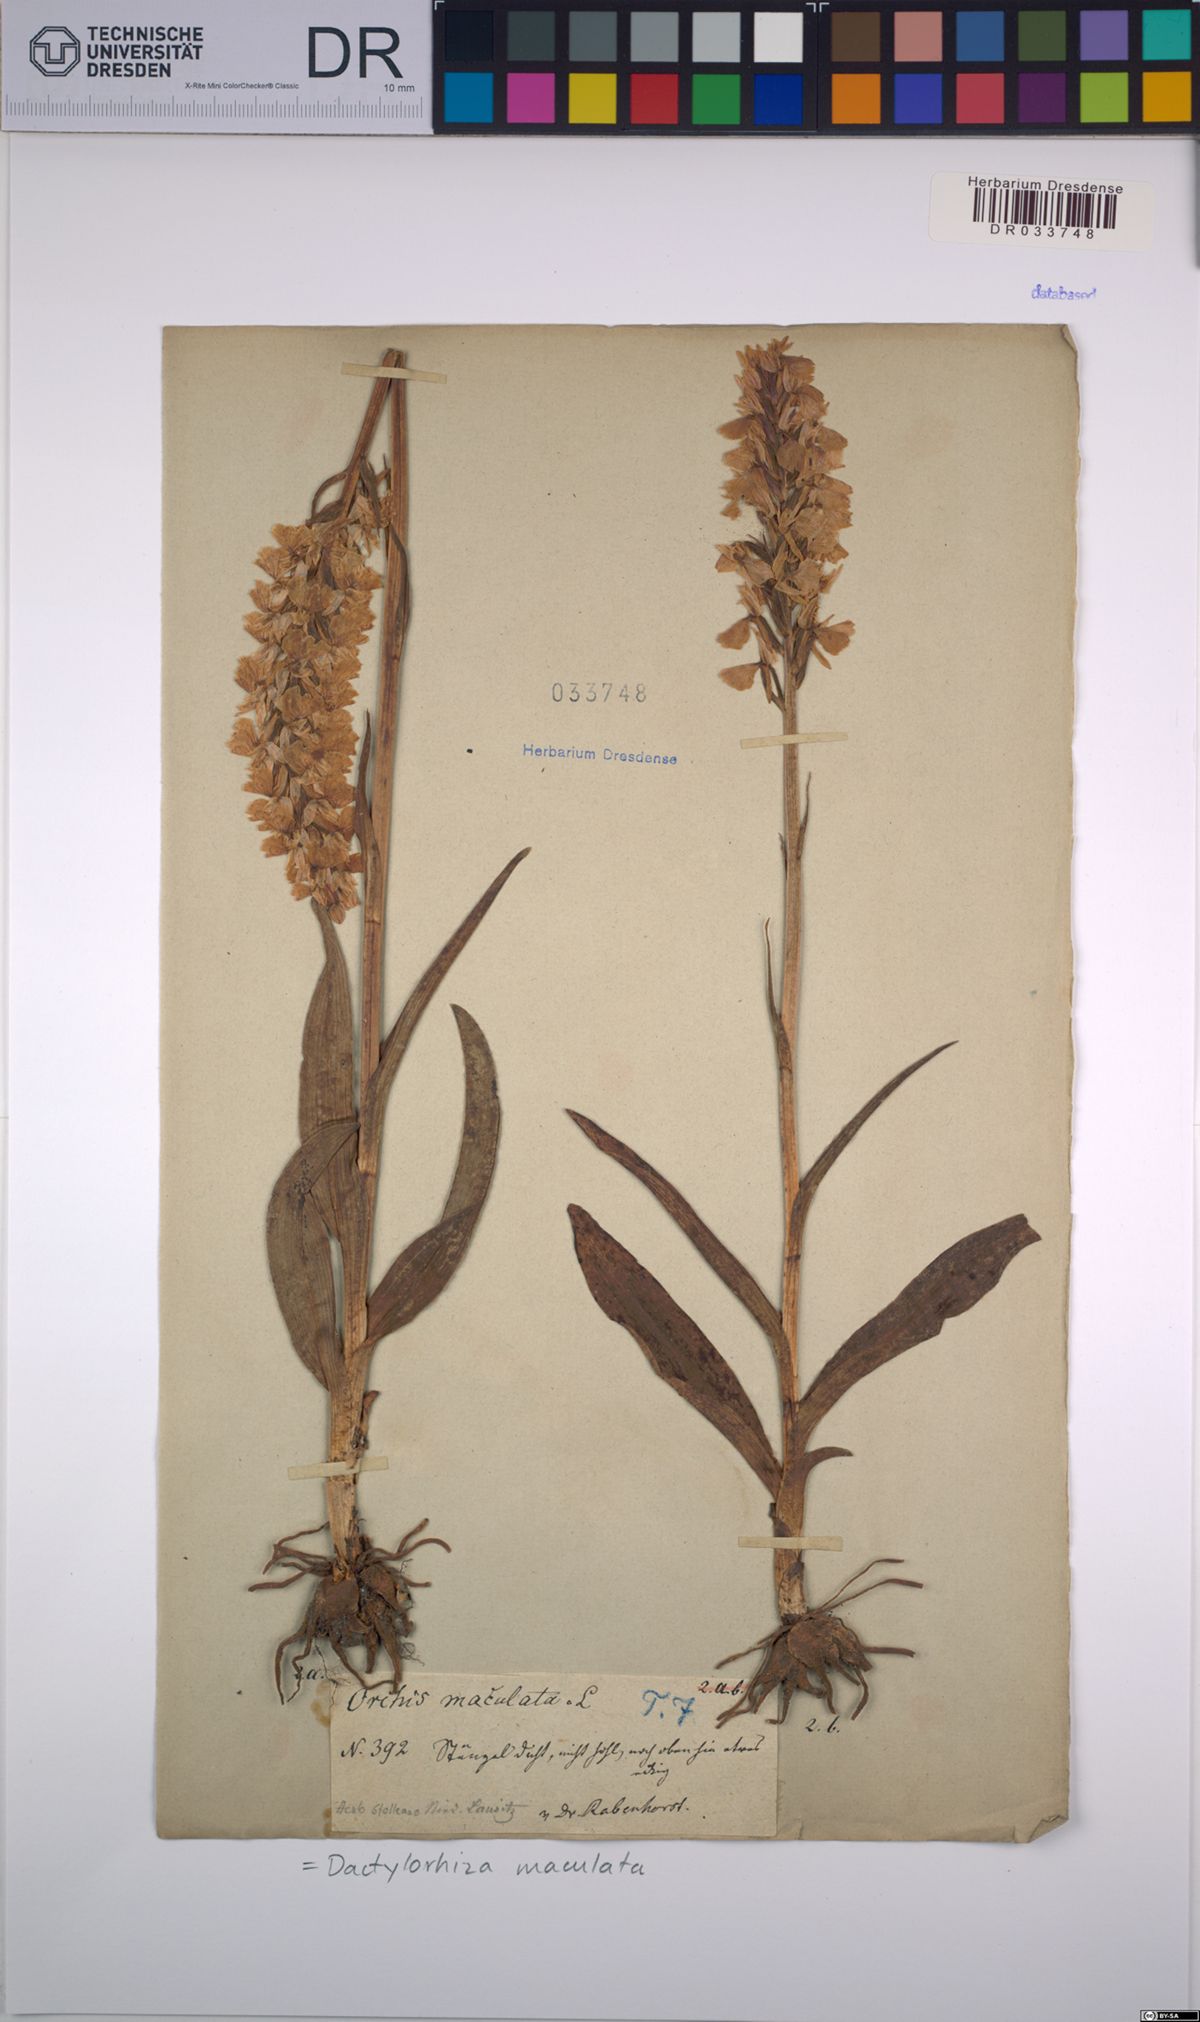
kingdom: Plantae
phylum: Tracheophyta
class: Liliopsida
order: Asparagales
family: Orchidaceae
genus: Dactylorhiza
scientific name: Dactylorhiza maculata
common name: Heath spotted-orchid
